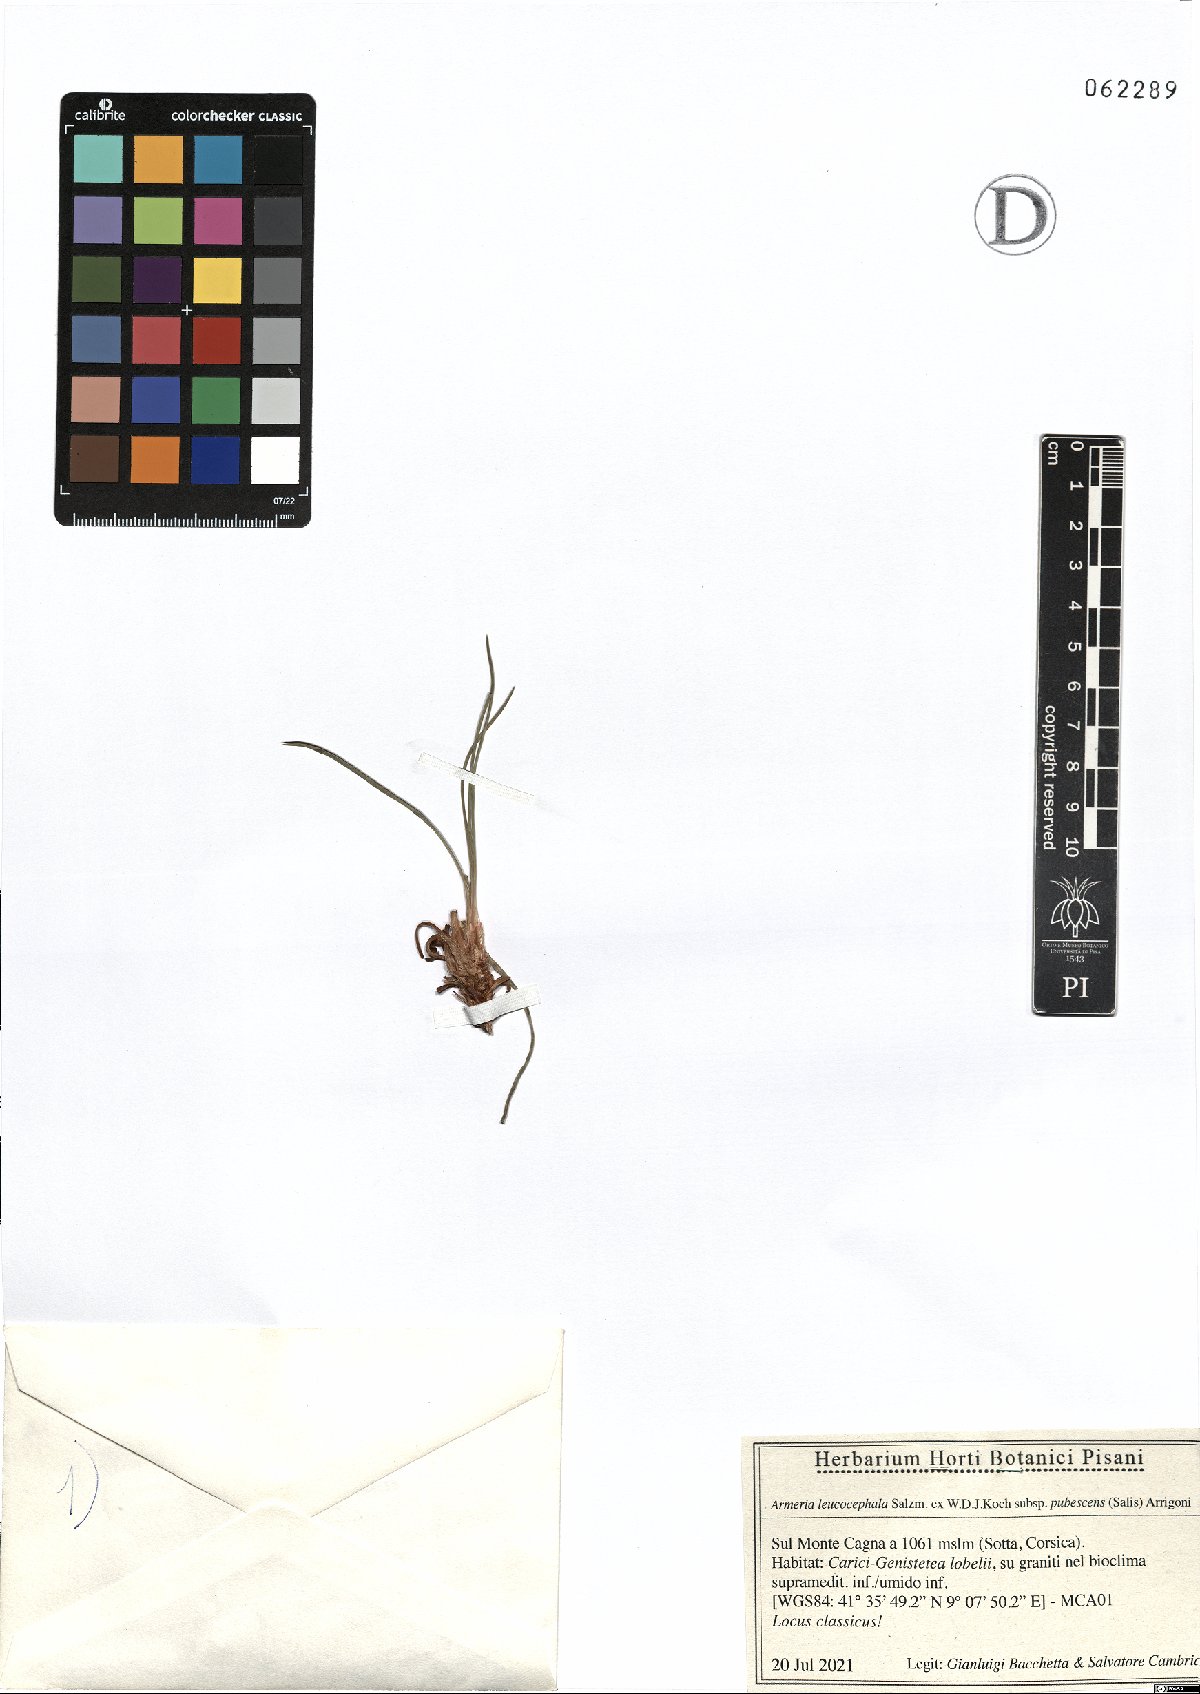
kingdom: Plantae
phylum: Tracheophyta
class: Magnoliopsida
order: Caryophyllales
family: Plumbaginaceae
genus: Armeria
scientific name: Armeria leucocephala
